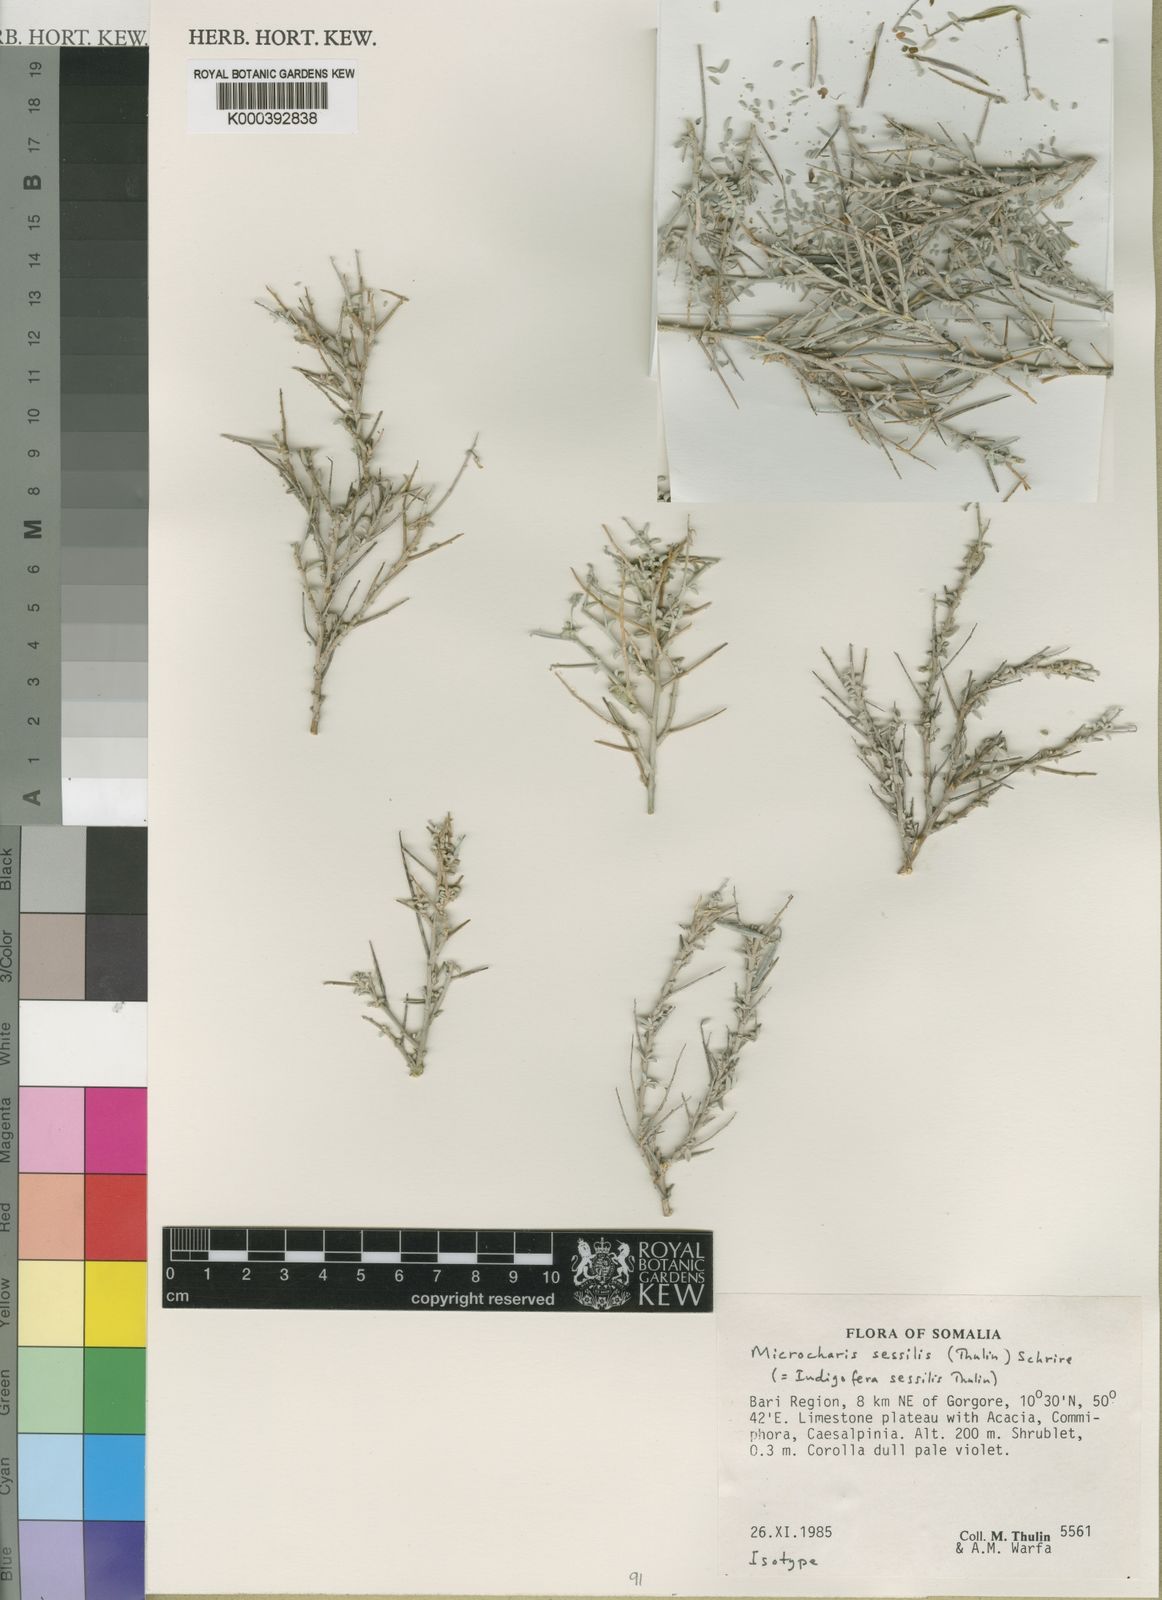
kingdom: Plantae
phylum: Tracheophyta
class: Magnoliopsida
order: Fabales
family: Fabaceae
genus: Indigofera
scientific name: Indigofera
